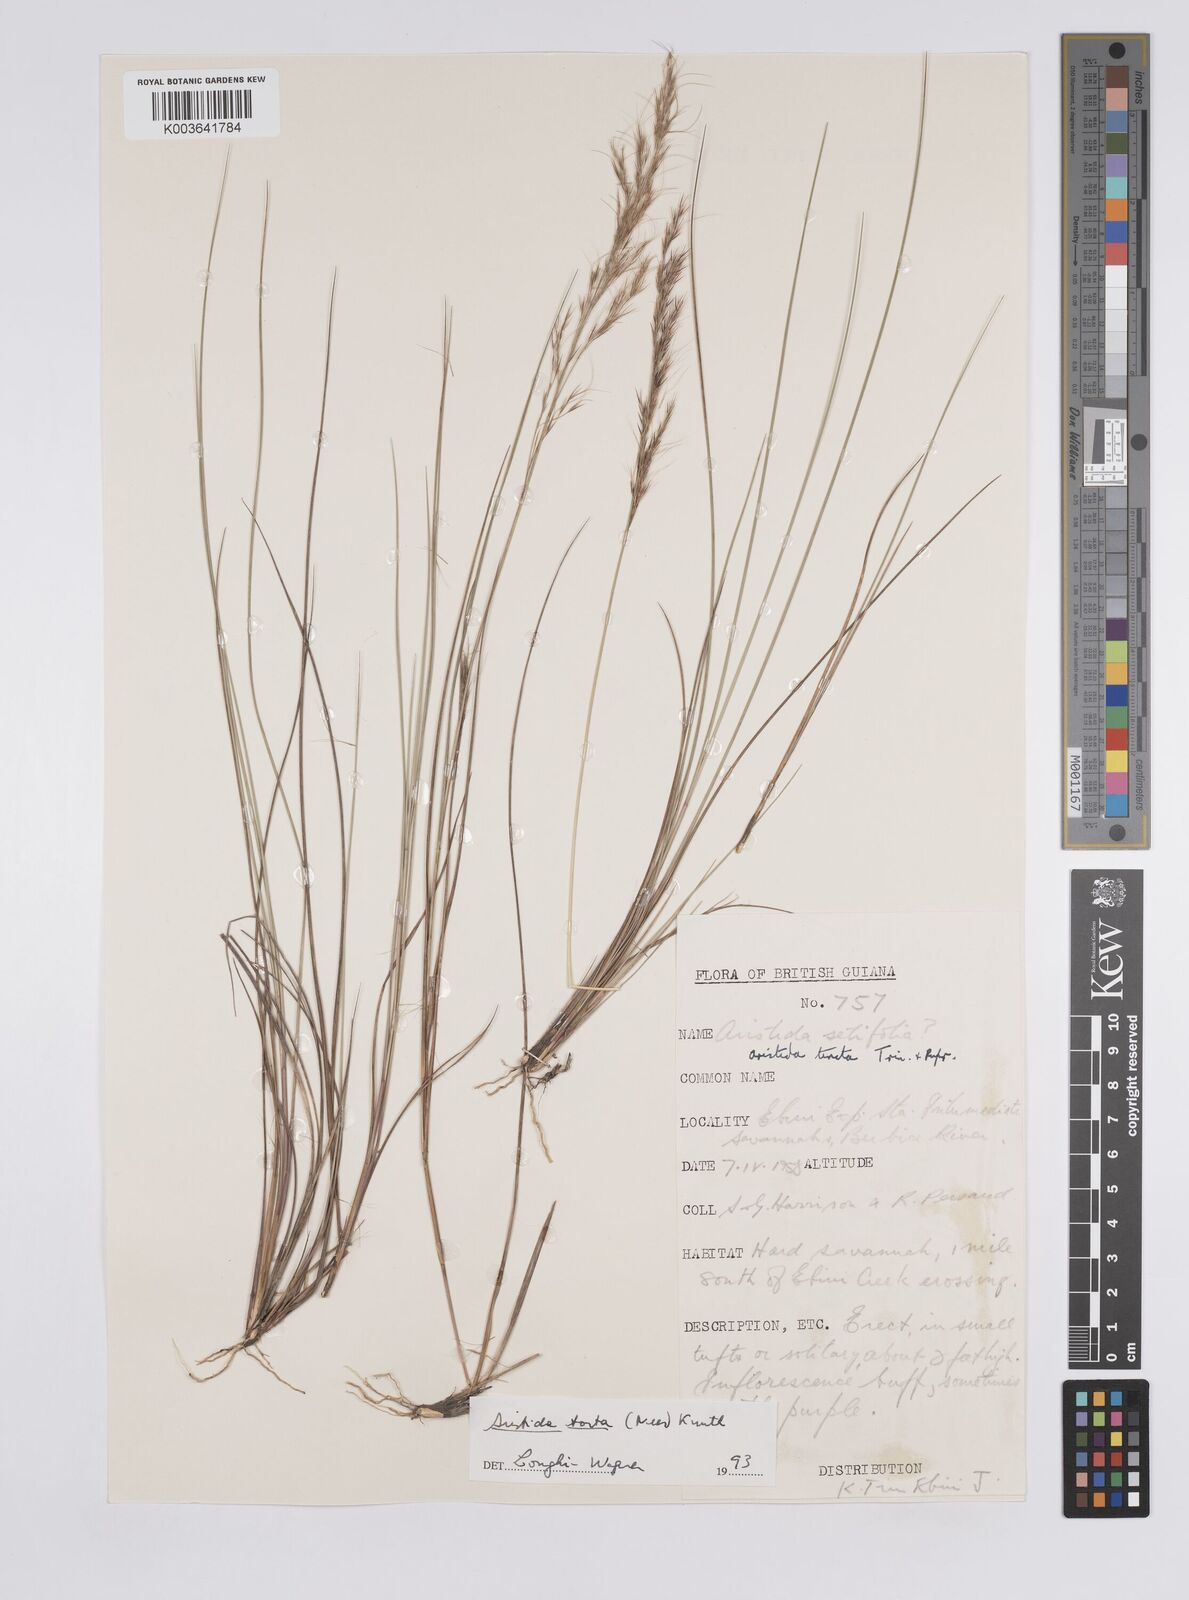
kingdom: Plantae
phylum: Tracheophyta
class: Liliopsida
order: Poales
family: Poaceae
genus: Aristida
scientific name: Aristida torta
